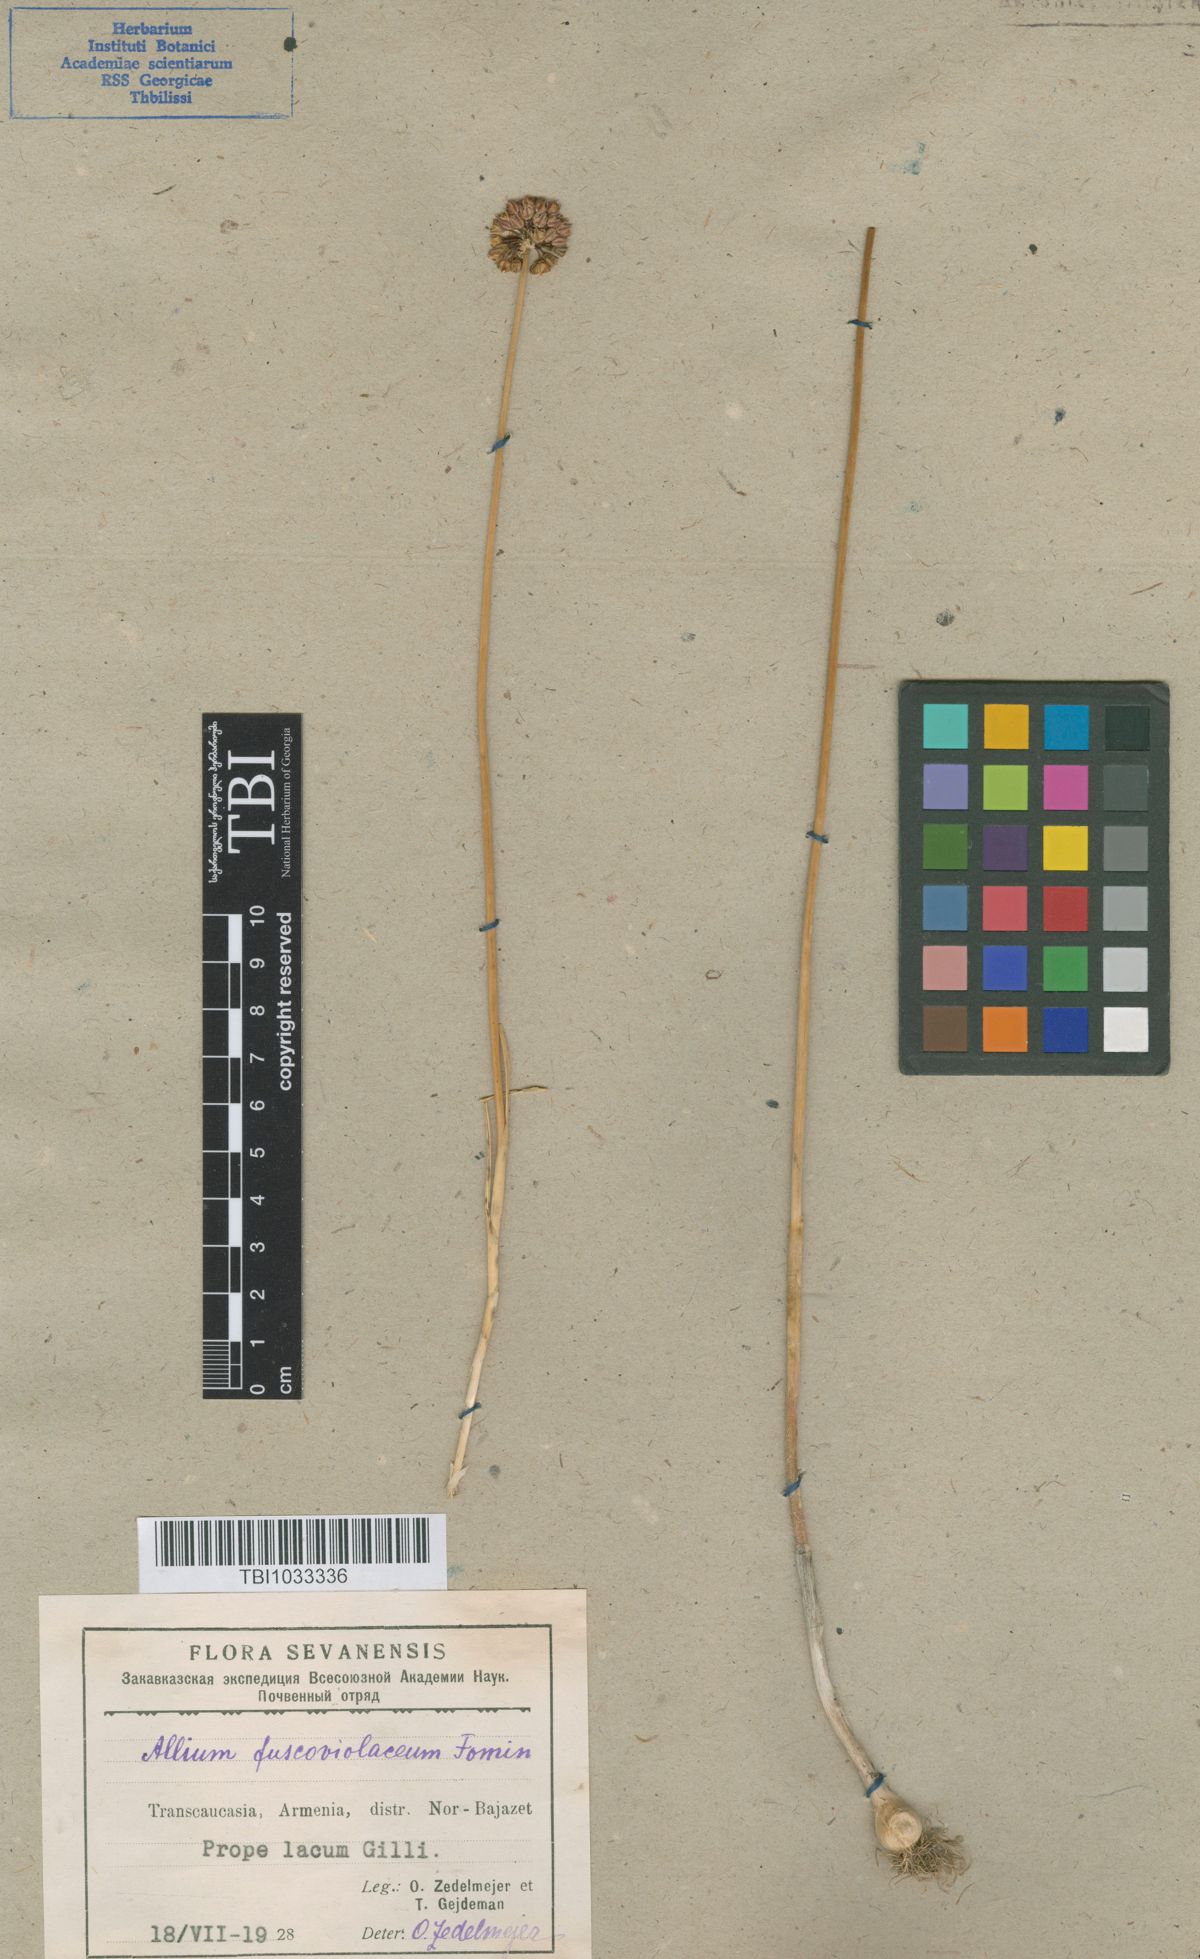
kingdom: Plantae
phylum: Tracheophyta
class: Liliopsida
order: Asparagales
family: Amaryllidaceae
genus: Allium
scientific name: Allium fuscoviolaceum
